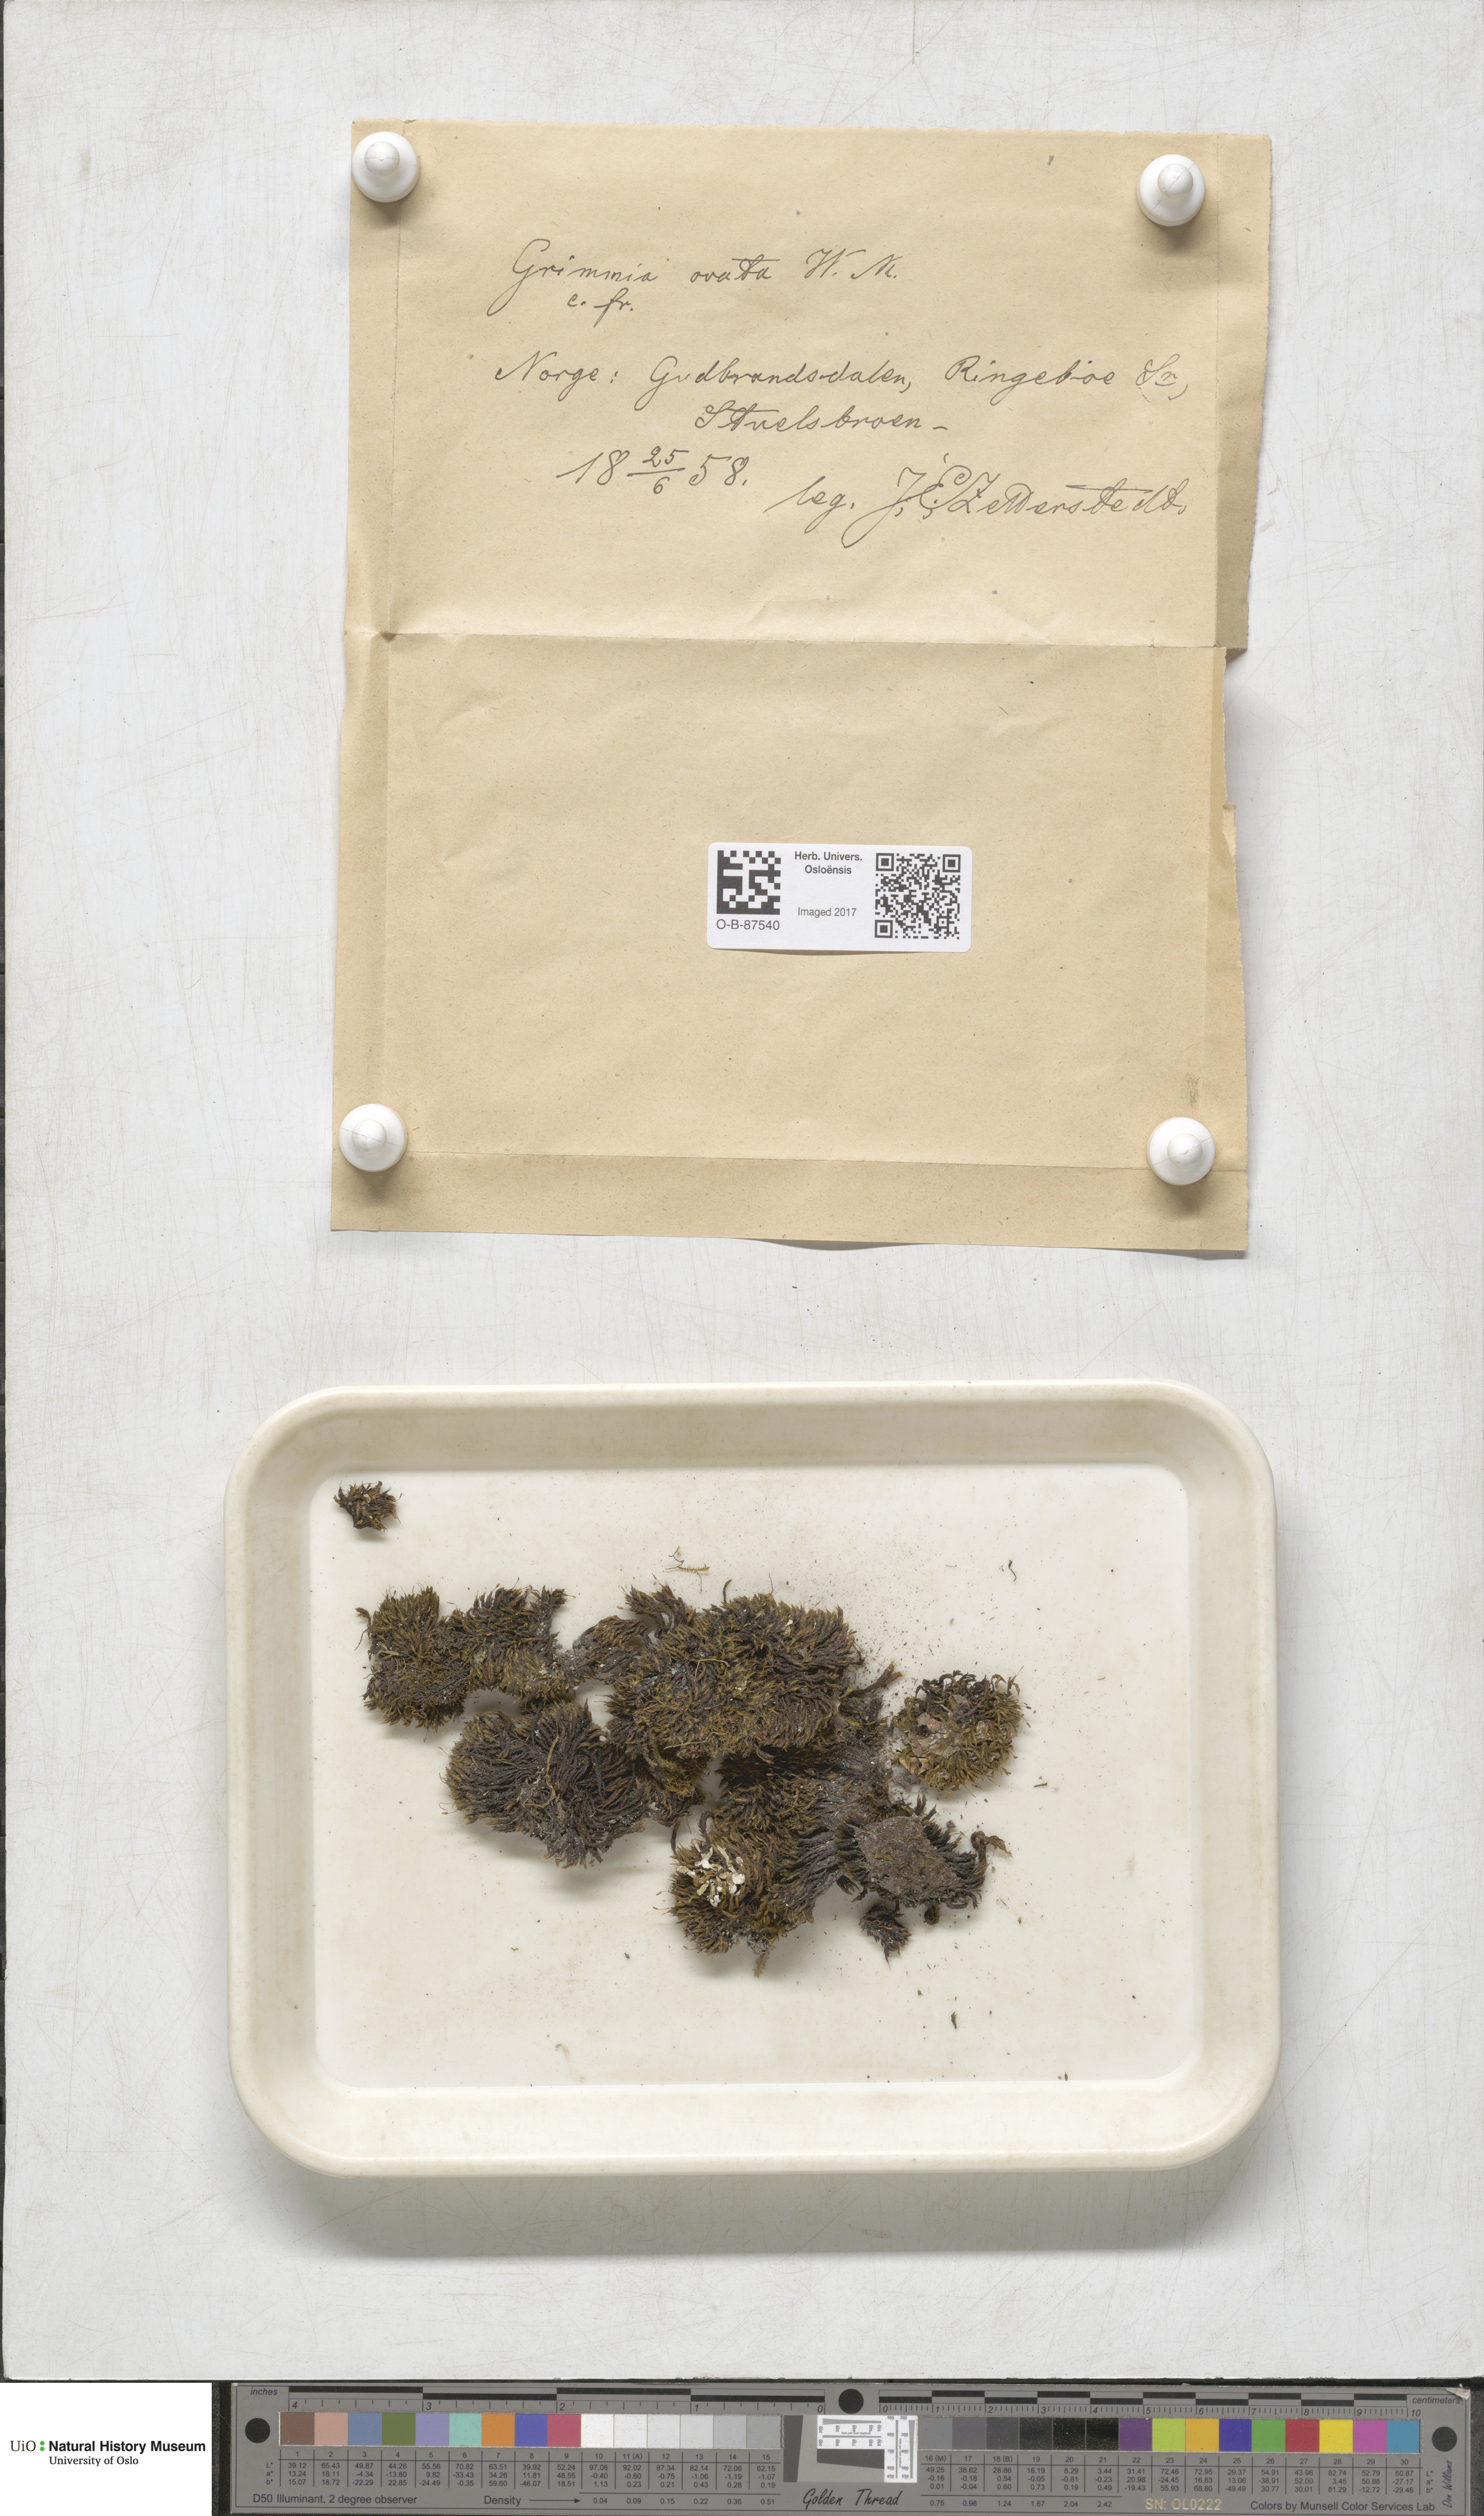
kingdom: Plantae
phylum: Bryophyta
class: Bryopsida
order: Grimmiales
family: Grimmiaceae
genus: Grimmia
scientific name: Grimmia ovalis
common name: Oval grimmia
